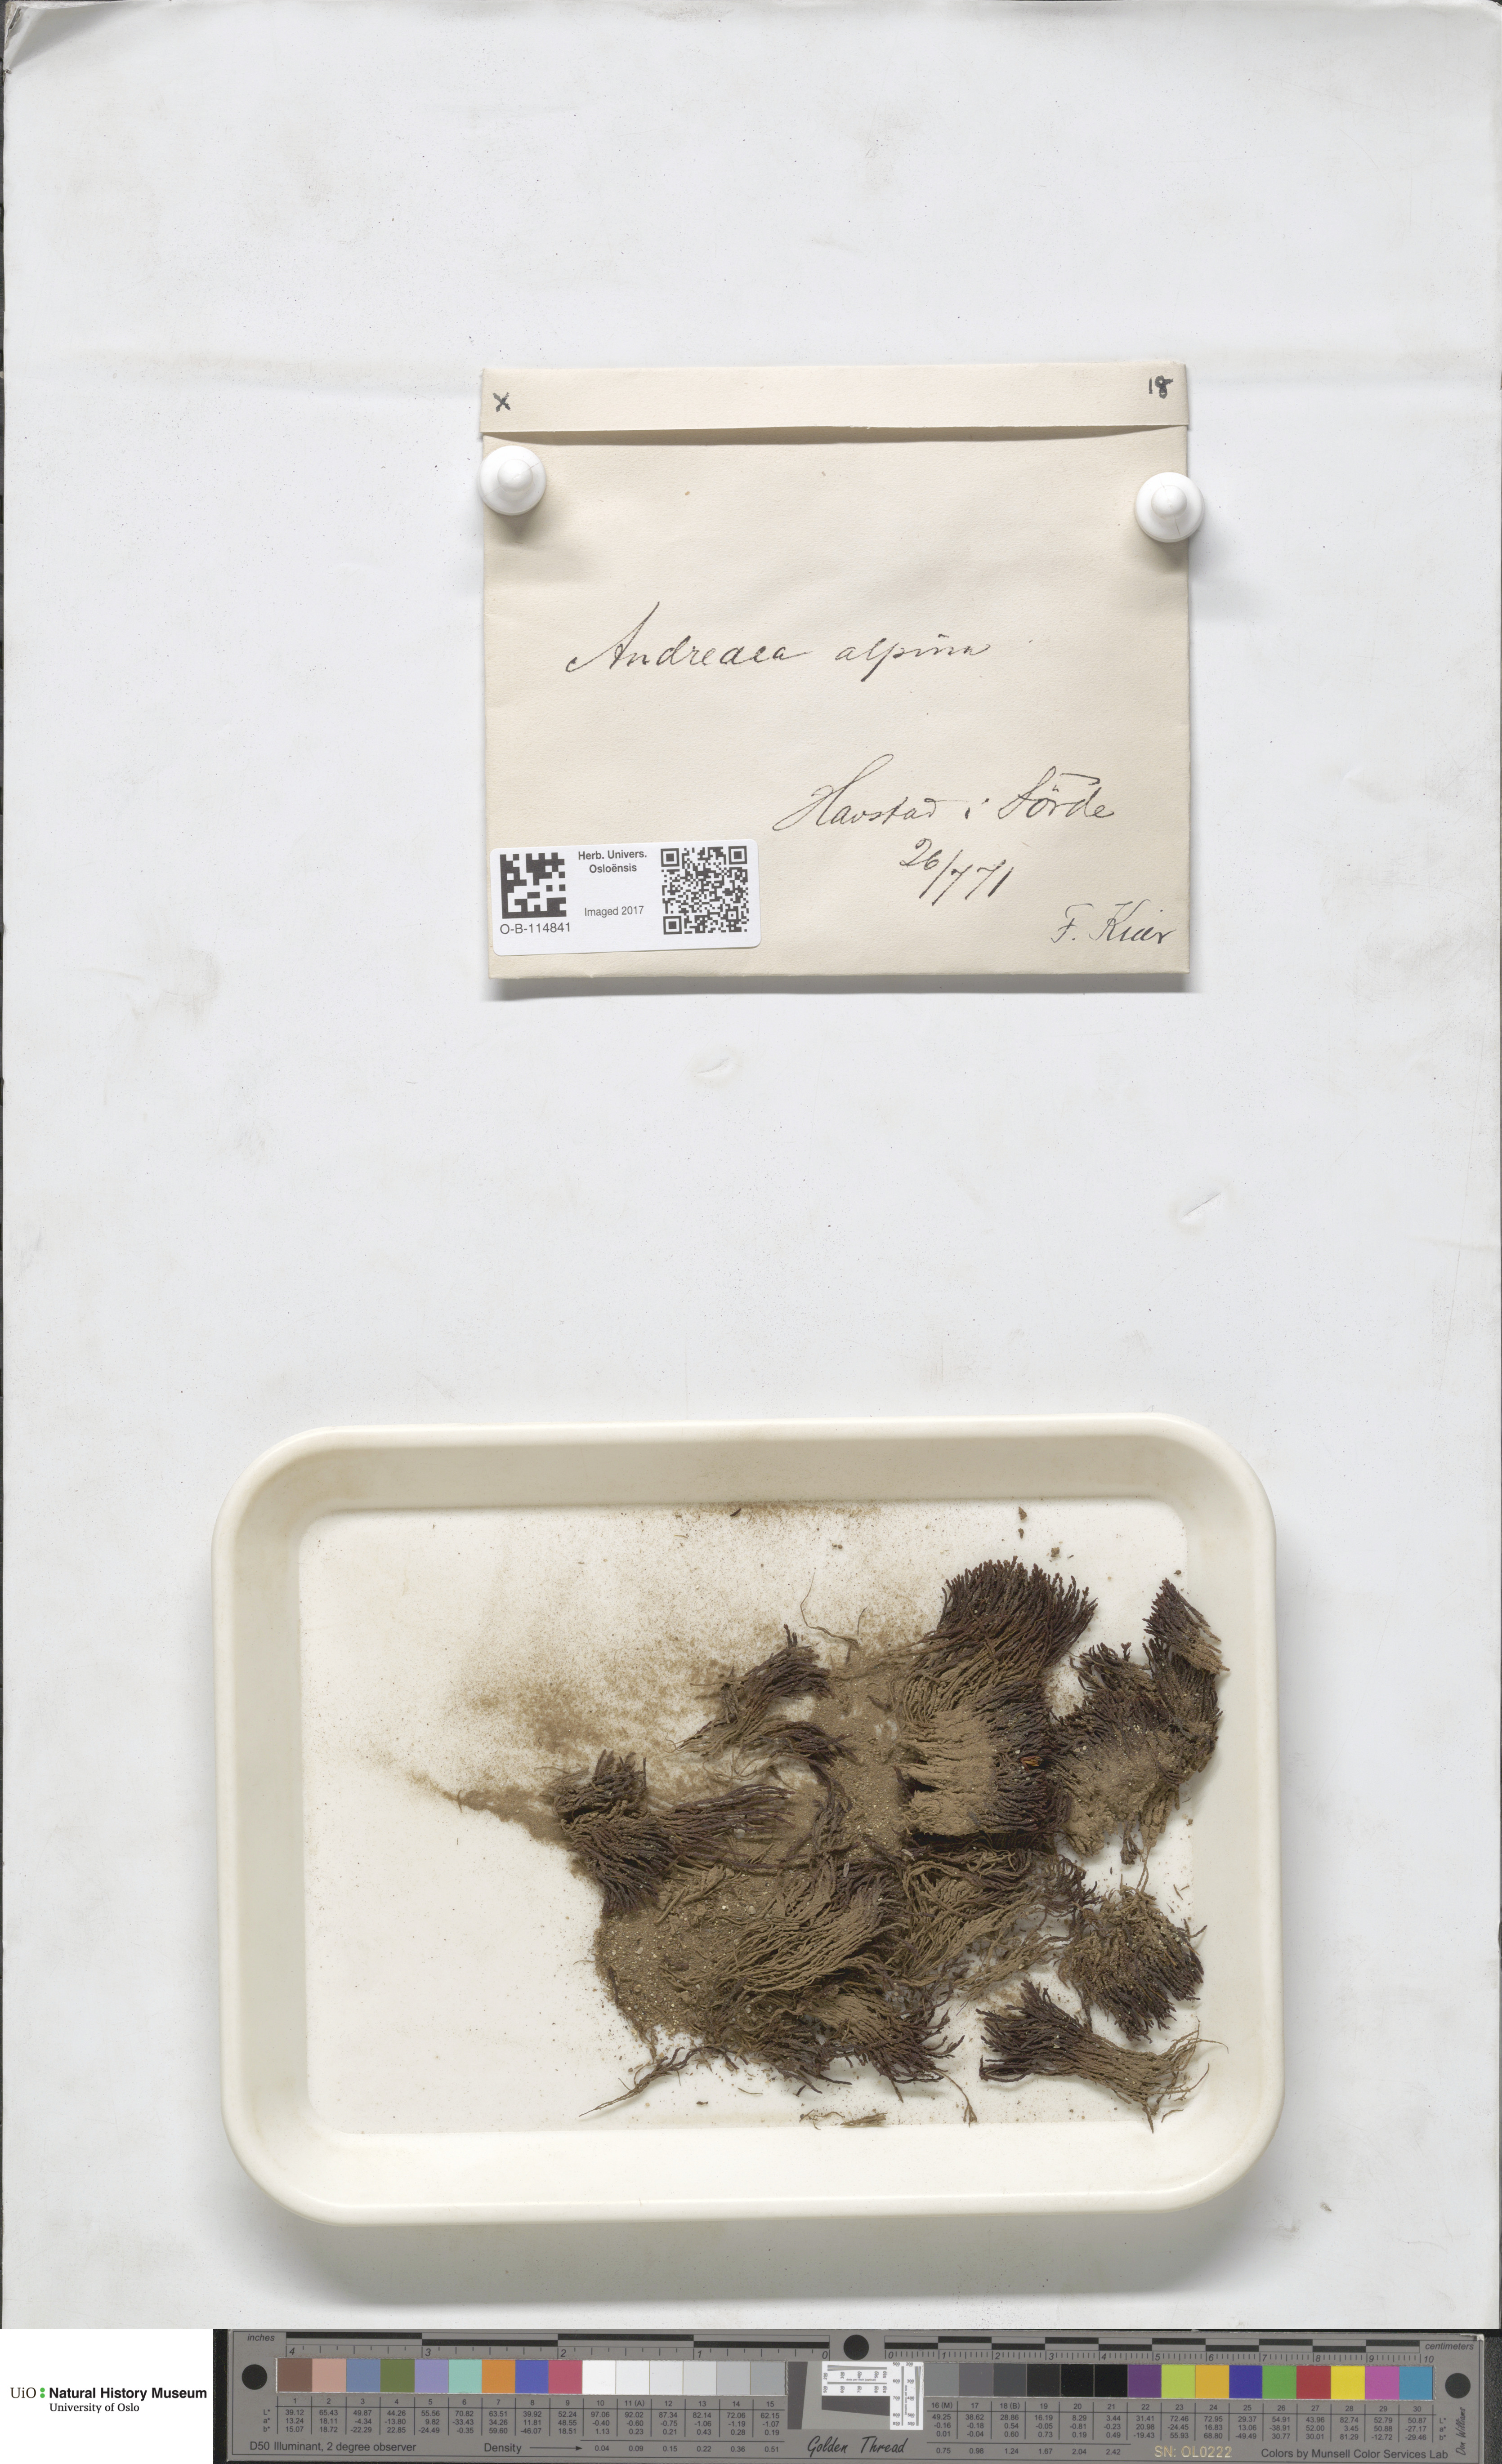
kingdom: Plantae
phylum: Bryophyta
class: Andreaeopsida
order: Andreaeales
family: Andreaeaceae
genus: Andreaea
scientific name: Andreaea hookeri
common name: Alpine rock-moss
